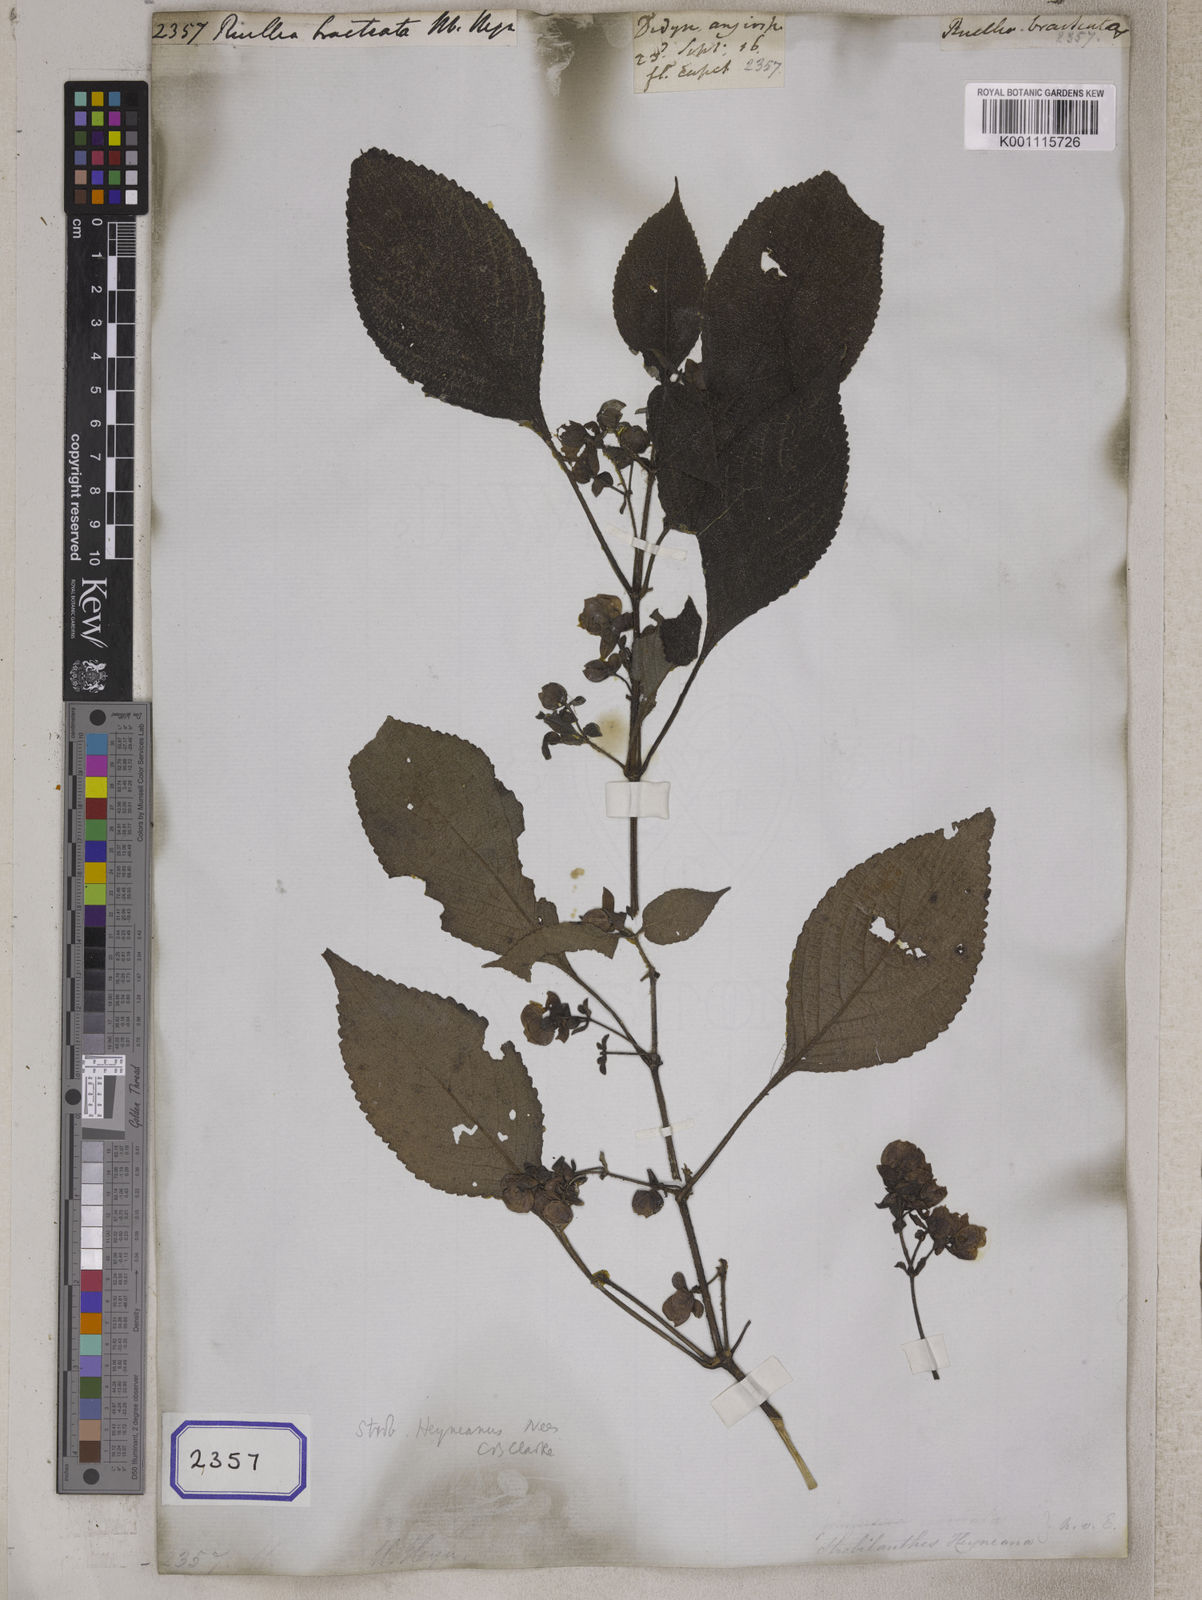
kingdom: Plantae
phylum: Tracheophyta
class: Magnoliopsida
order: Lamiales
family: Acanthaceae
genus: Strobilanthes
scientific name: Strobilanthes heyneana
